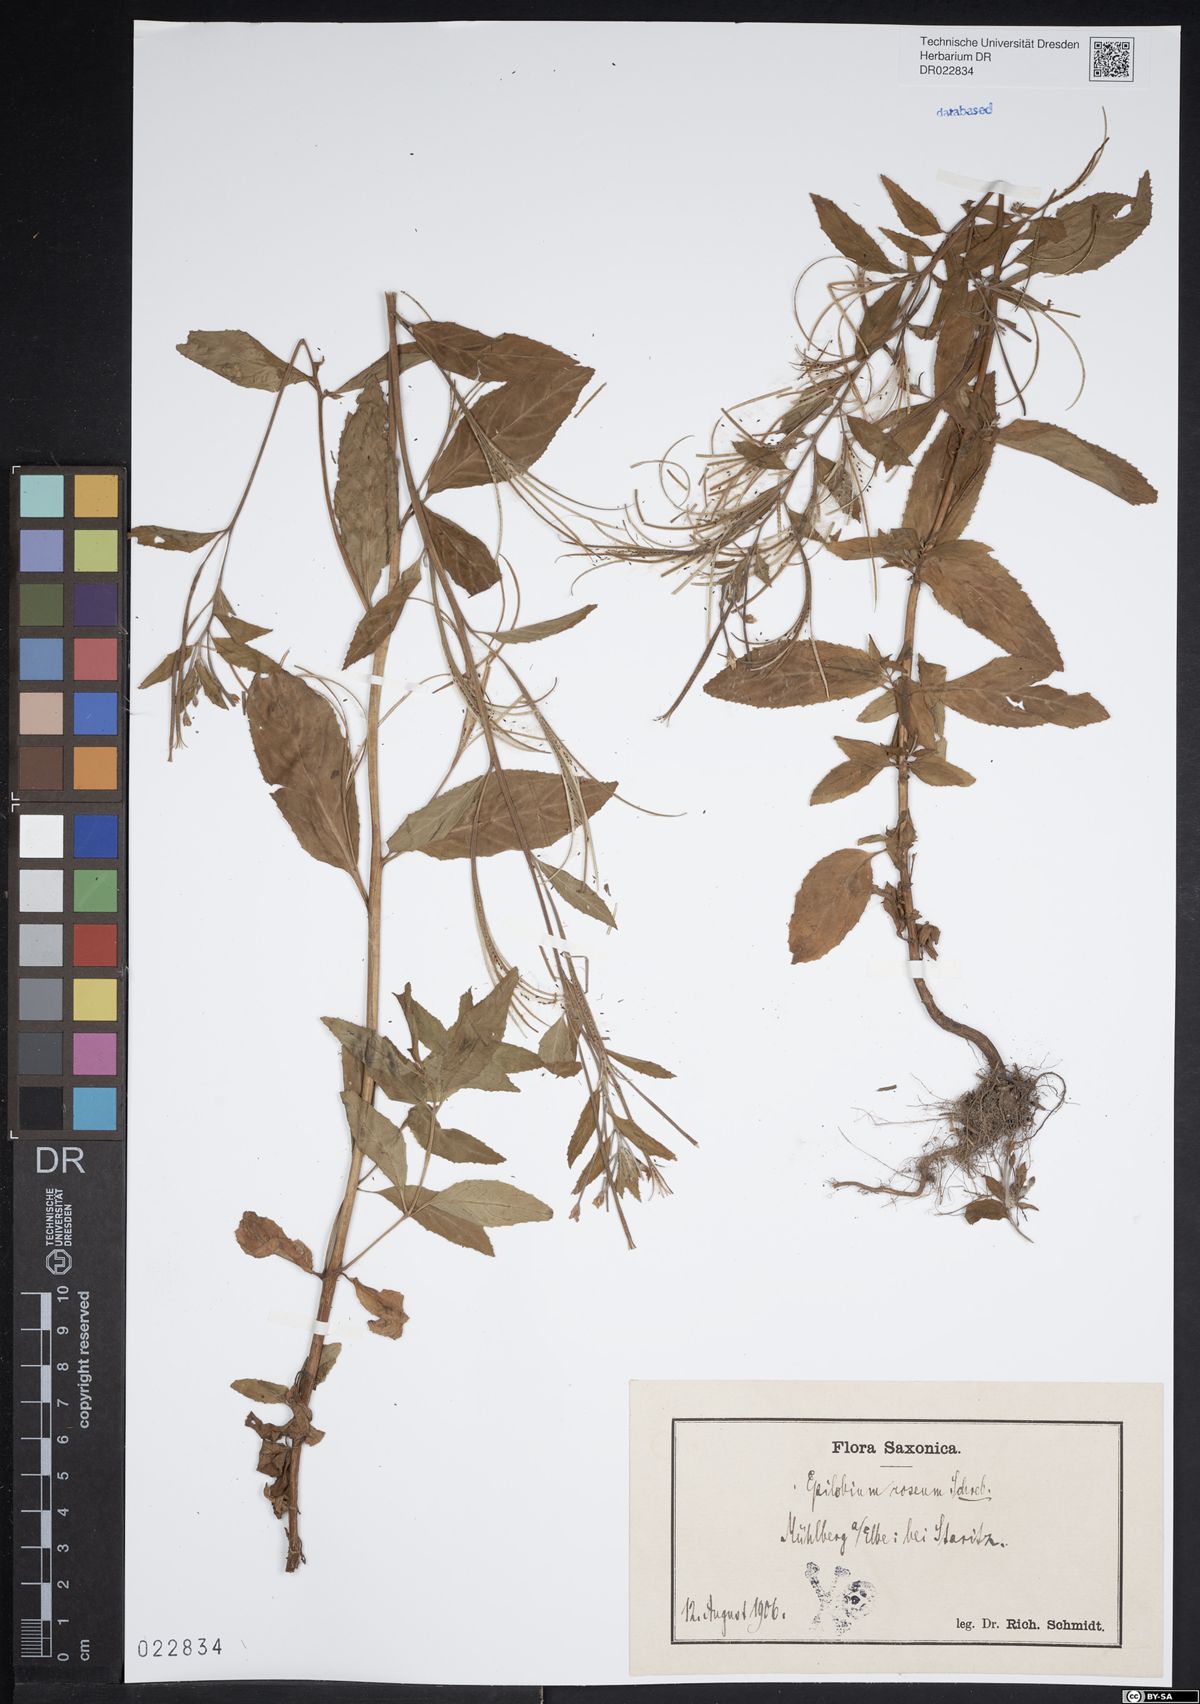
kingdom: Plantae
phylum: Tracheophyta
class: Magnoliopsida
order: Myrtales
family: Onagraceae
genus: Epilobium
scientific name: Epilobium roseum
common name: Pale willowherb
